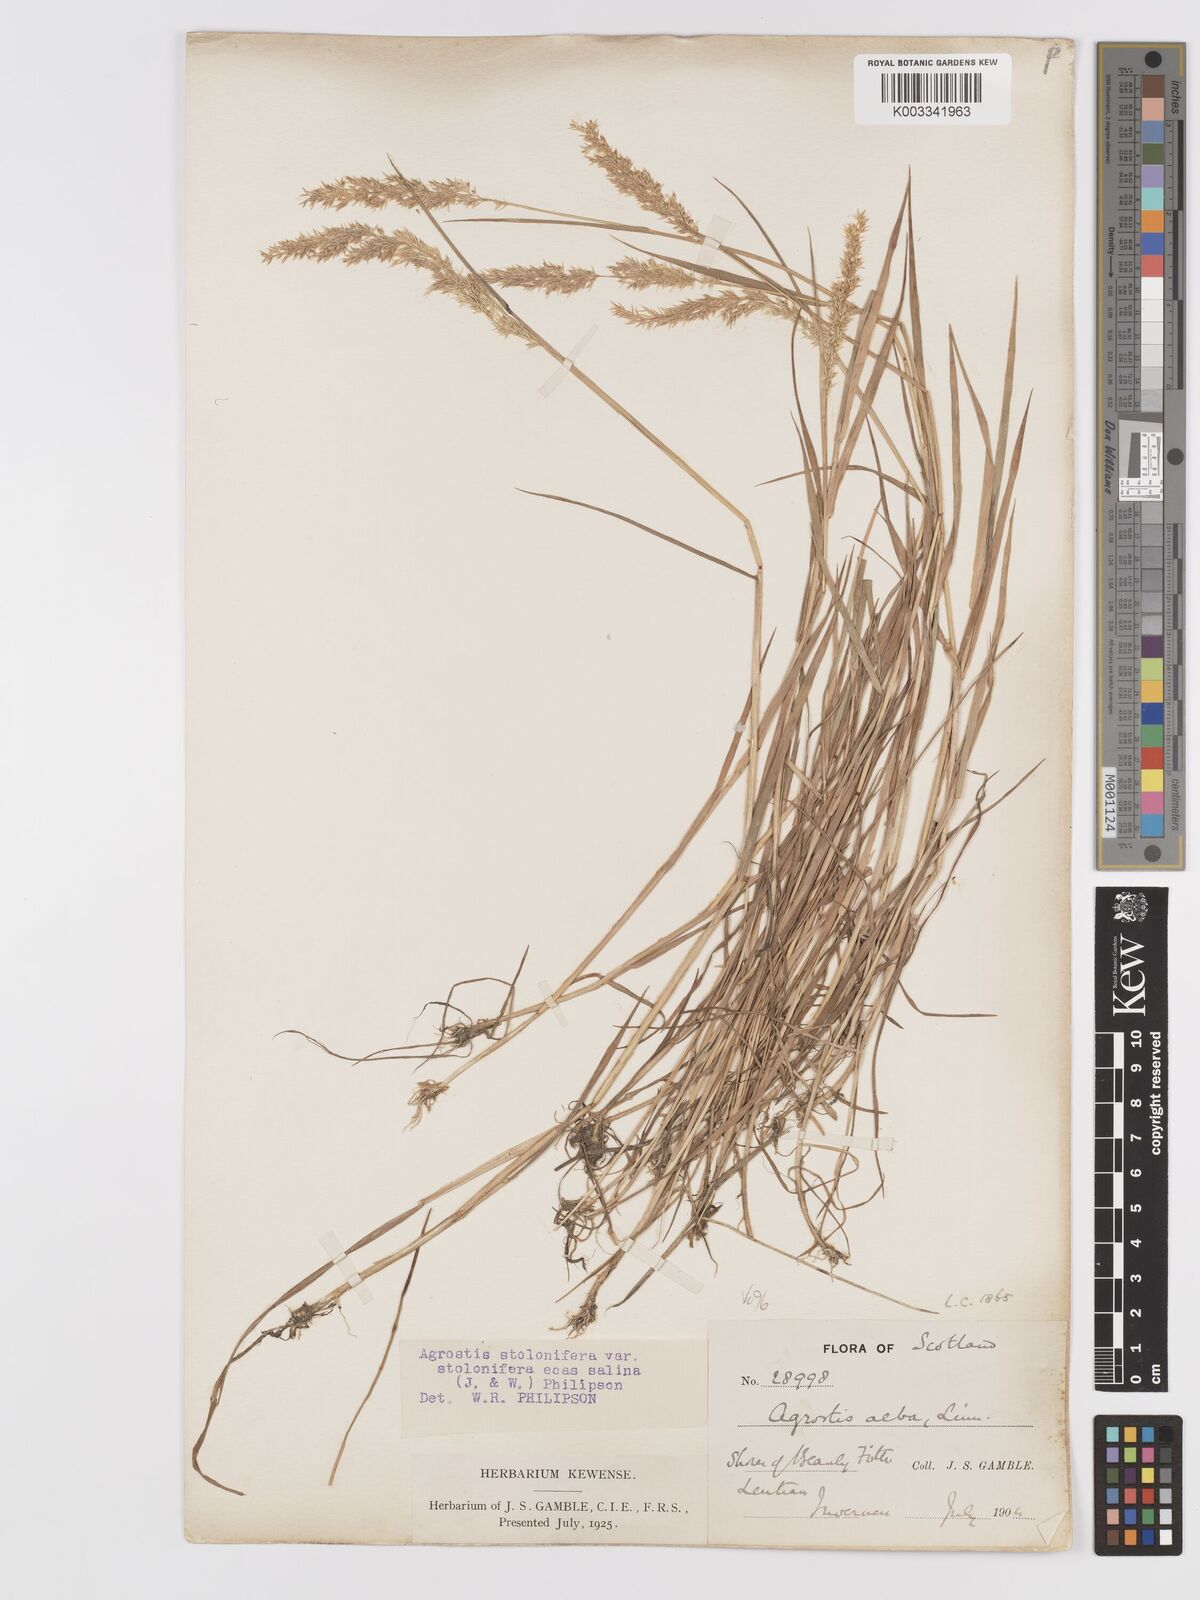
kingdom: Plantae
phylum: Tracheophyta
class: Liliopsida
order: Poales
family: Poaceae
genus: Agrostis
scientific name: Agrostis stolonifera
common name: Creeping bentgrass
